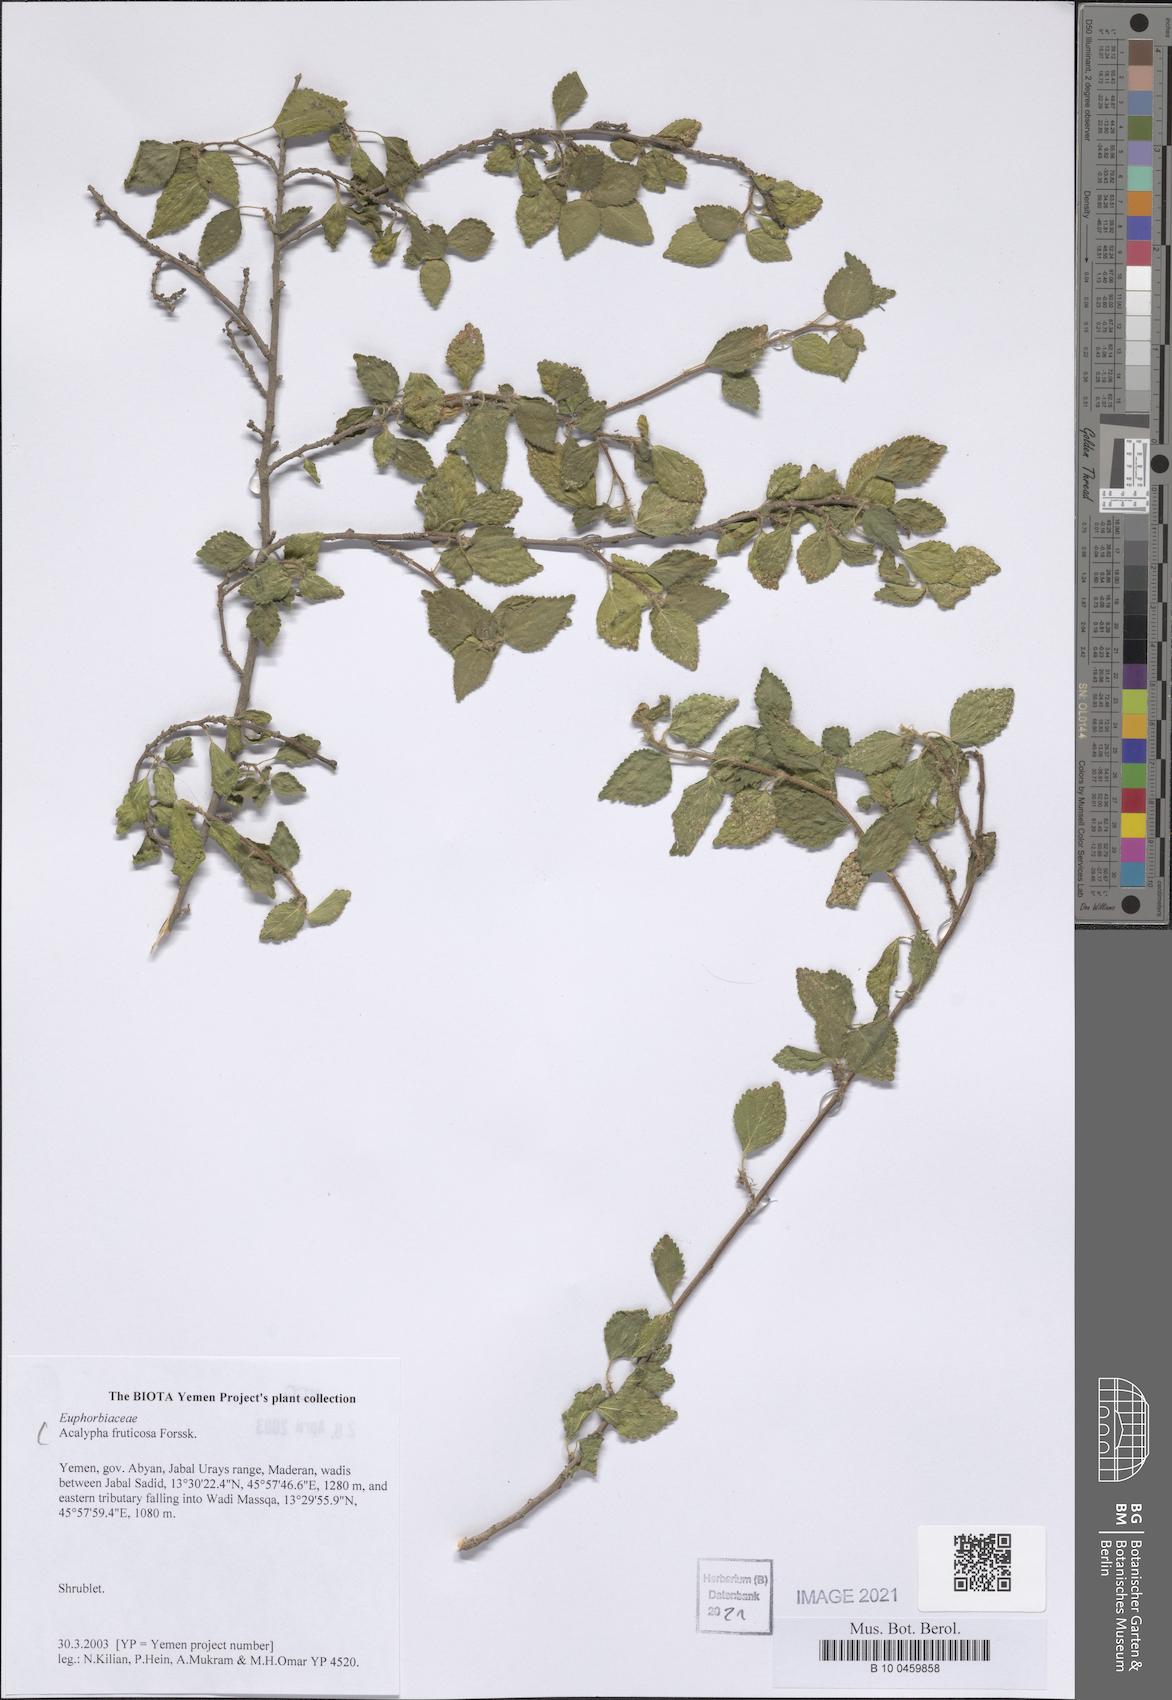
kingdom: Plantae
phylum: Tracheophyta
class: Magnoliopsida
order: Malpighiales
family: Euphorbiaceae
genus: Acalypha
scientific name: Acalypha fruticosa
